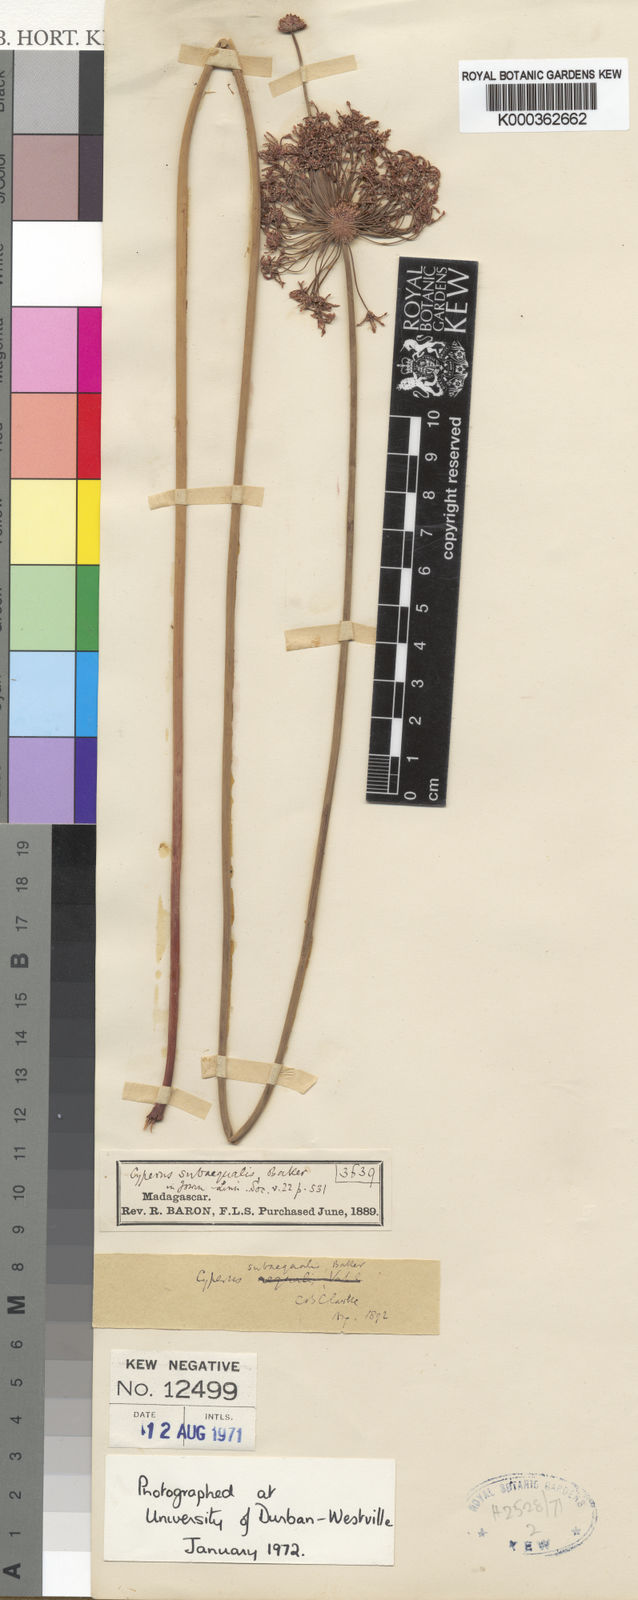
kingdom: Plantae
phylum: Tracheophyta
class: Liliopsida
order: Poales
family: Cyperaceae
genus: Cyperus
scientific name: Cyperus subaequalis
